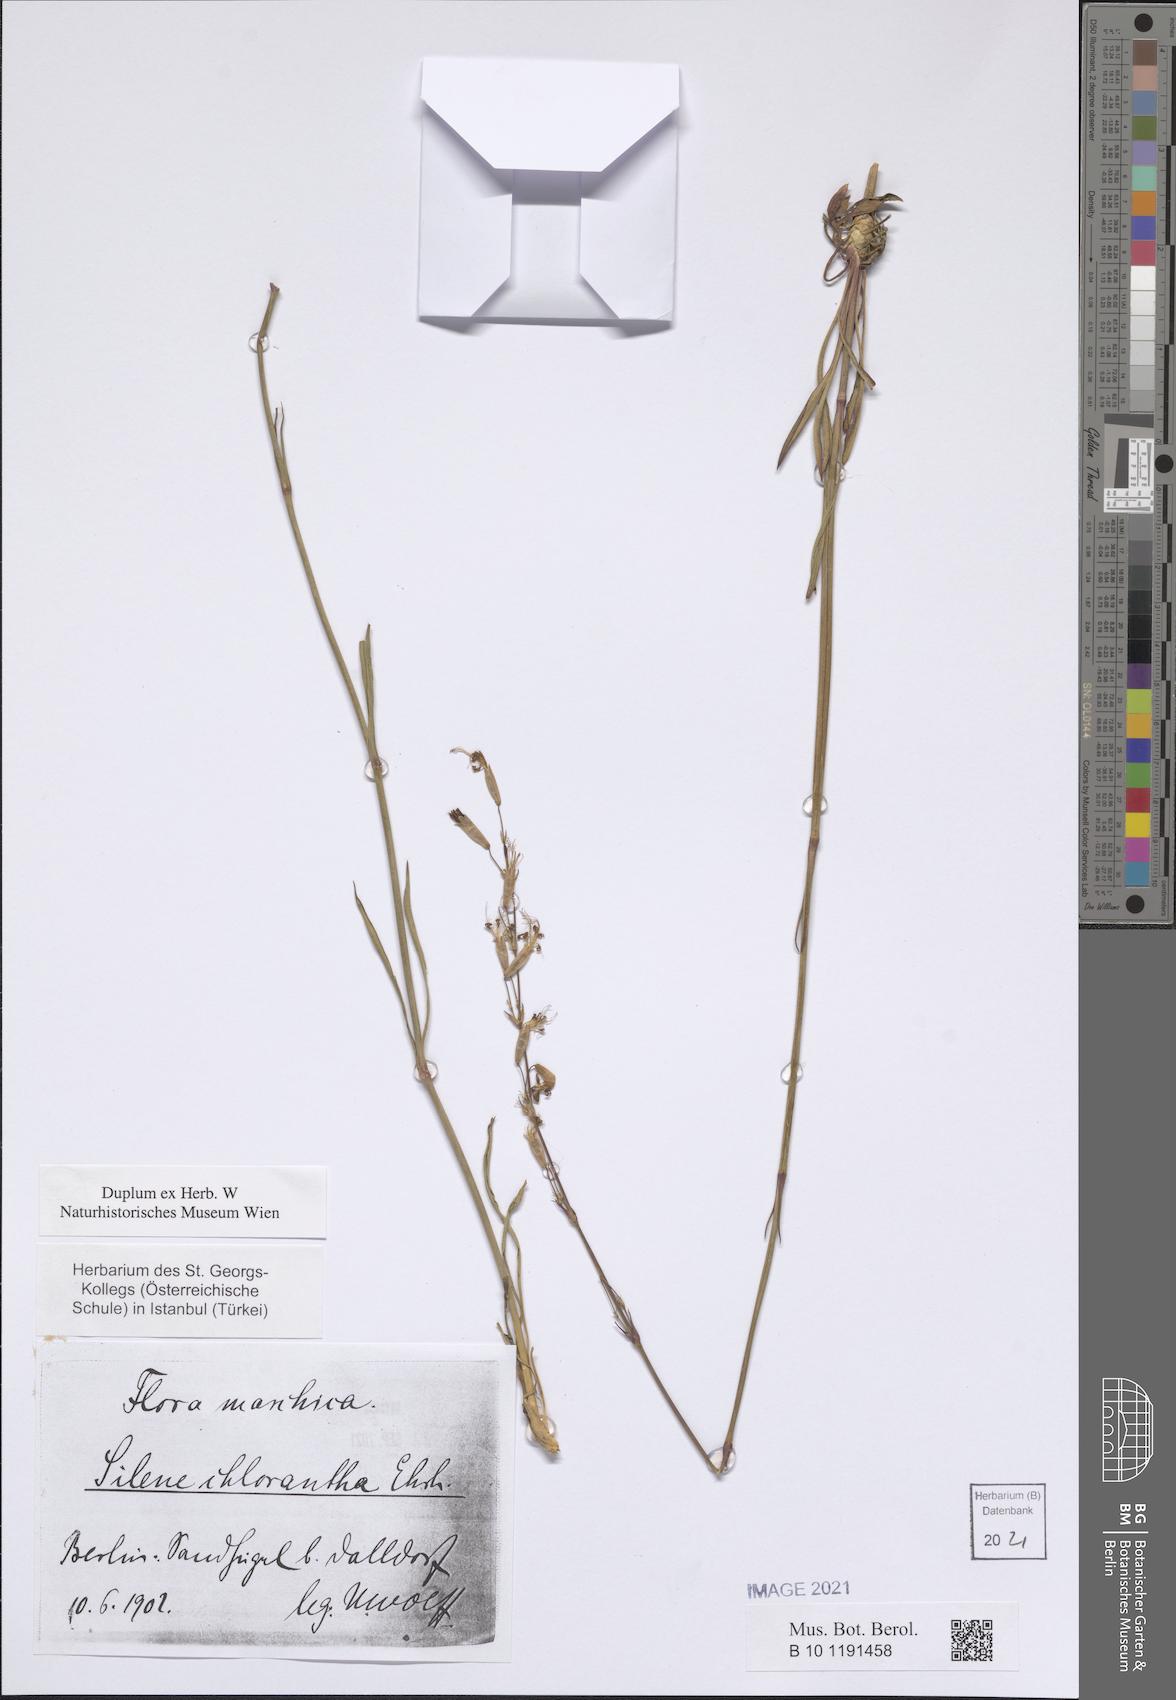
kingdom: Plantae
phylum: Tracheophyta
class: Magnoliopsida
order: Caryophyllales
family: Caryophyllaceae
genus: Silene
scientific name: Silene chlorantha
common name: Yellowgreen catchfly
